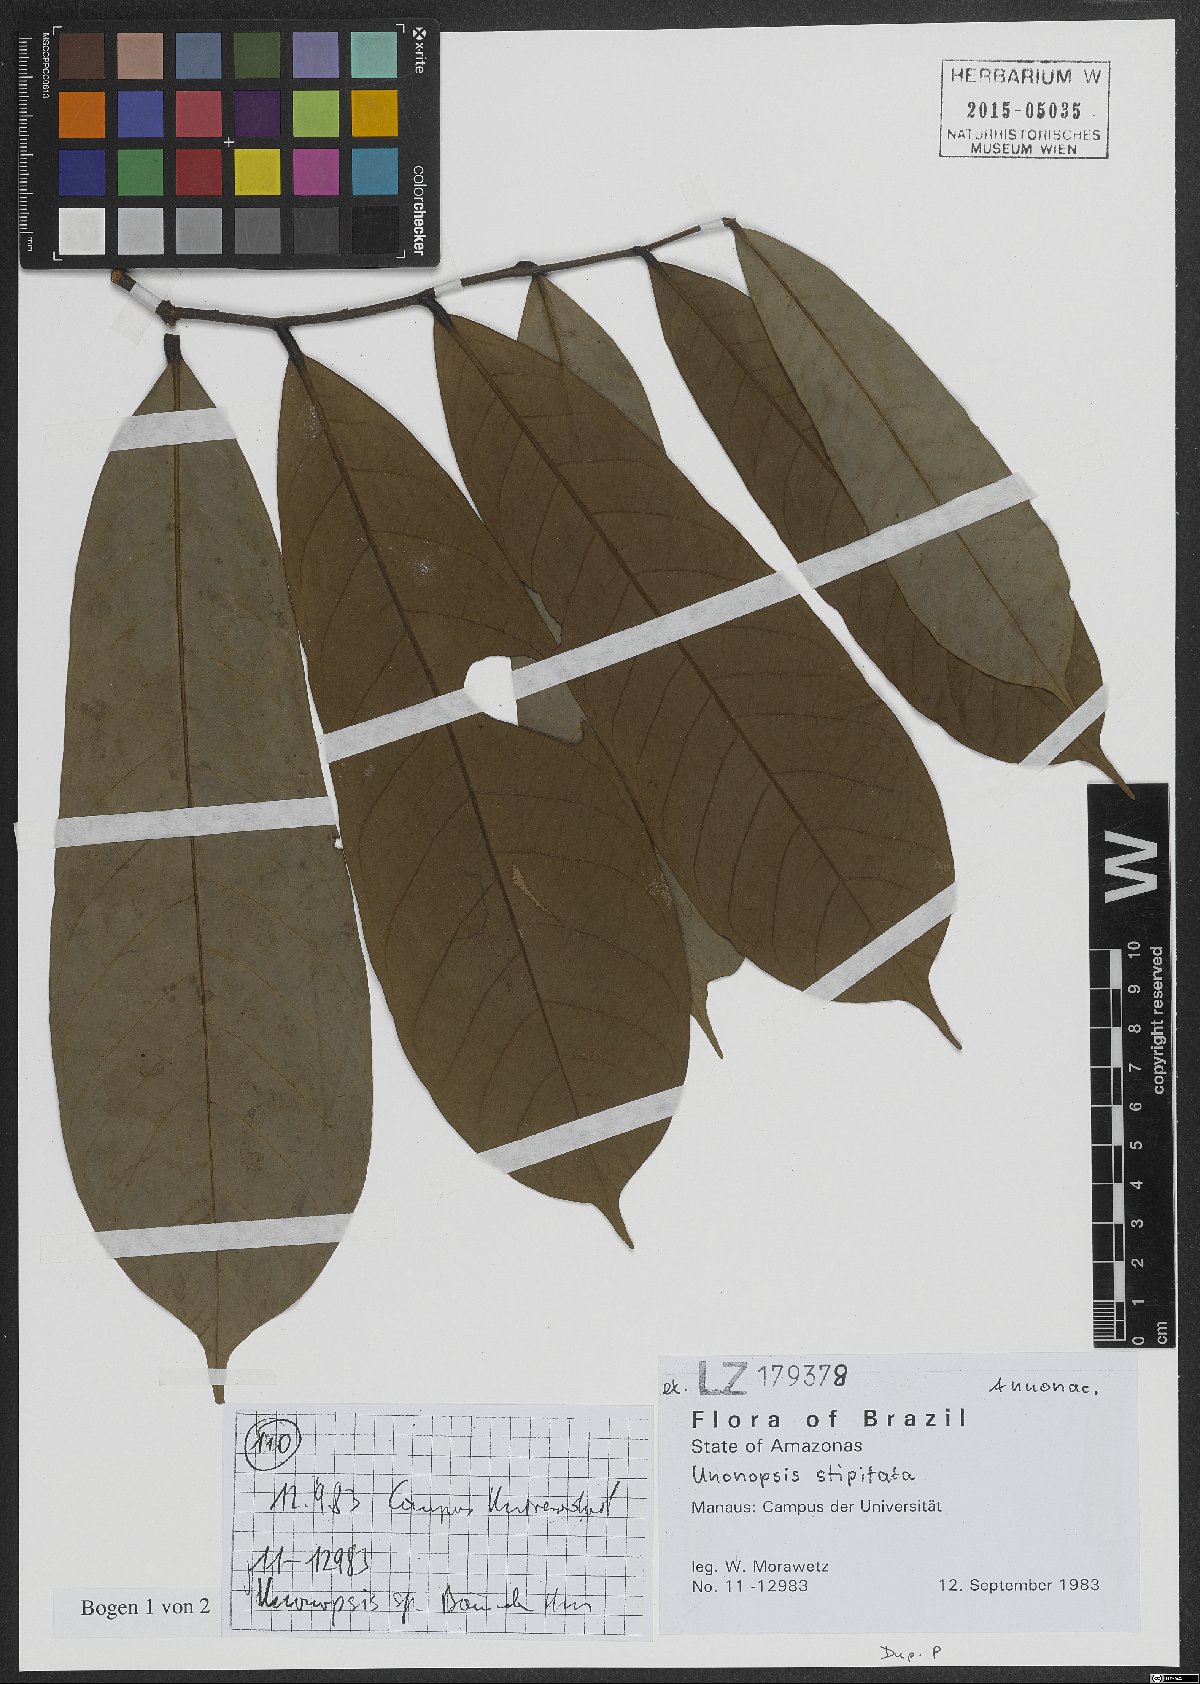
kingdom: Plantae
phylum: Tracheophyta
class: Magnoliopsida
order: Magnoliales
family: Annonaceae
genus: Unonopsis
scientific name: Unonopsis stipitata
